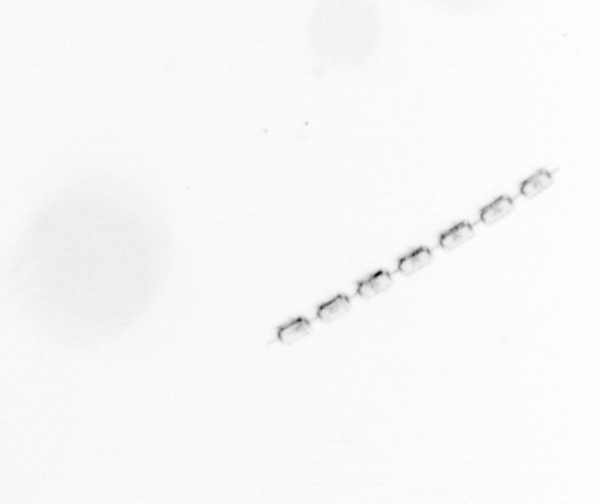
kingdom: Chromista
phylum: Ochrophyta
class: Bacillariophyceae
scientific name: Bacillariophyceae
